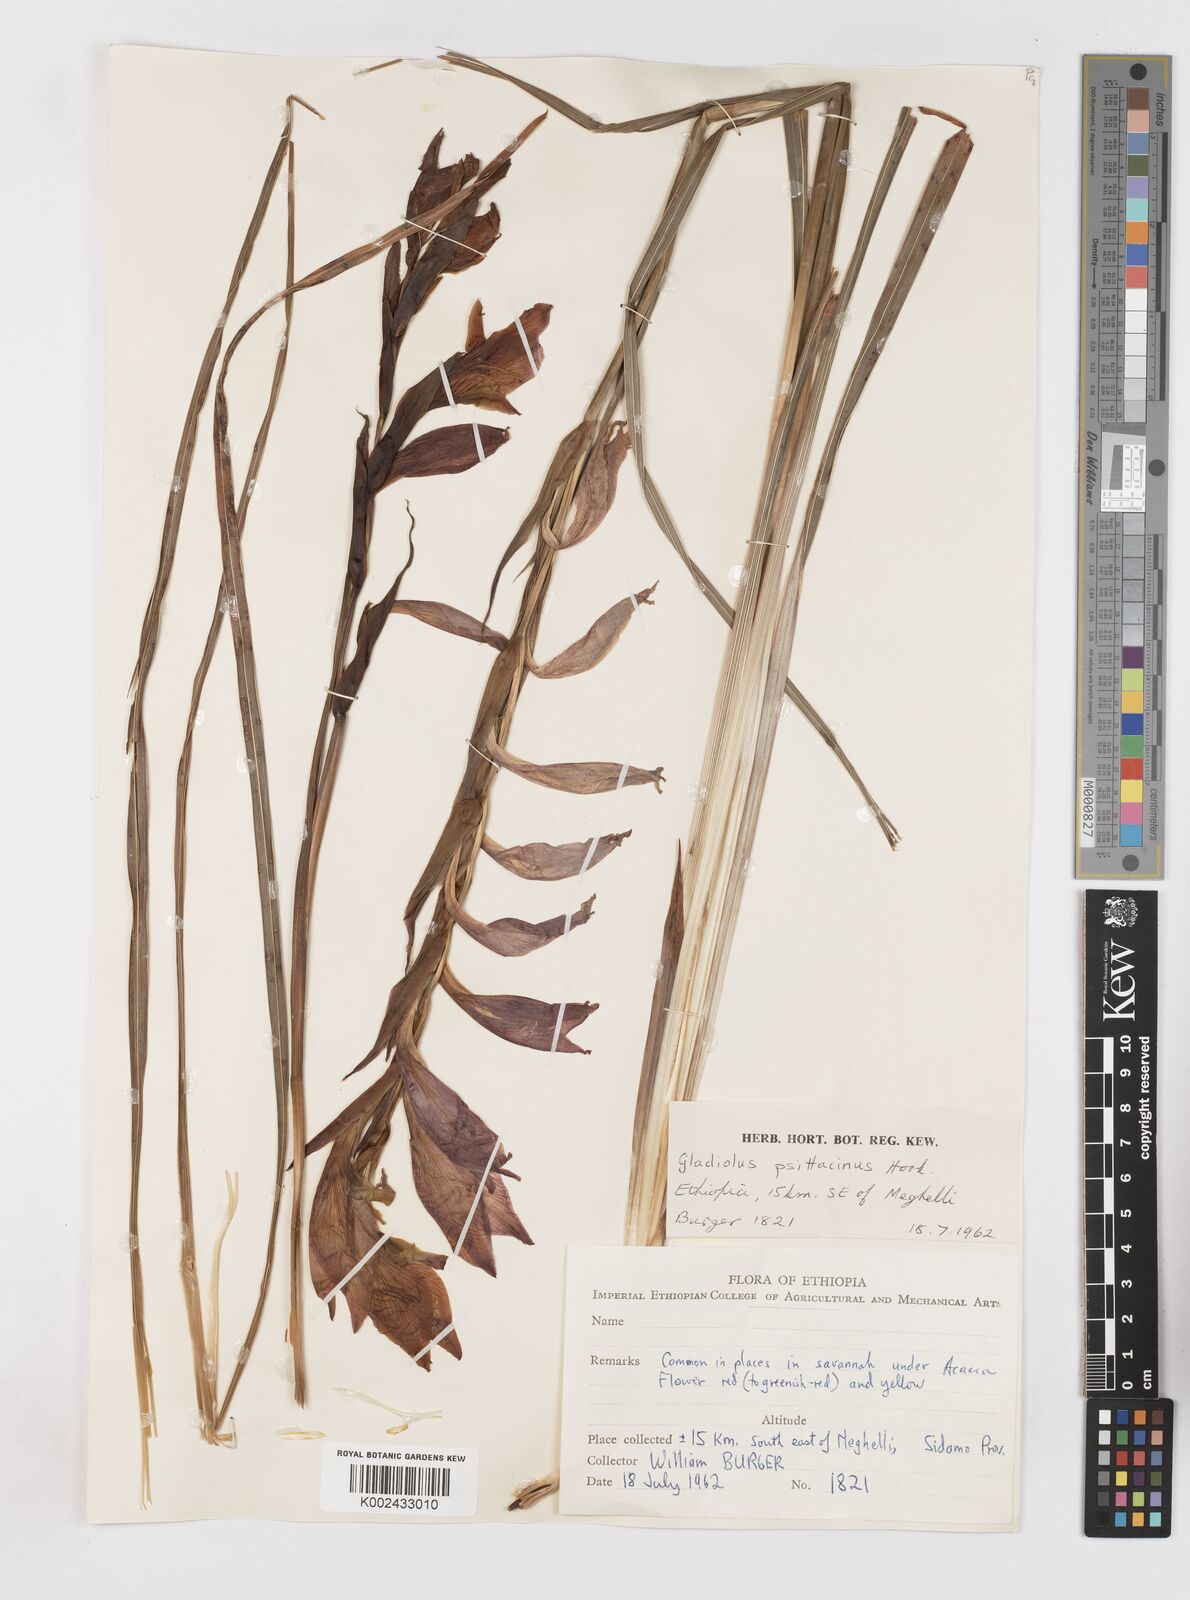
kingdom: Plantae
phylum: Tracheophyta
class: Liliopsida
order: Asparagales
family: Iridaceae
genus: Gladiolus
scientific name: Gladiolus dalenii
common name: Cornflag
